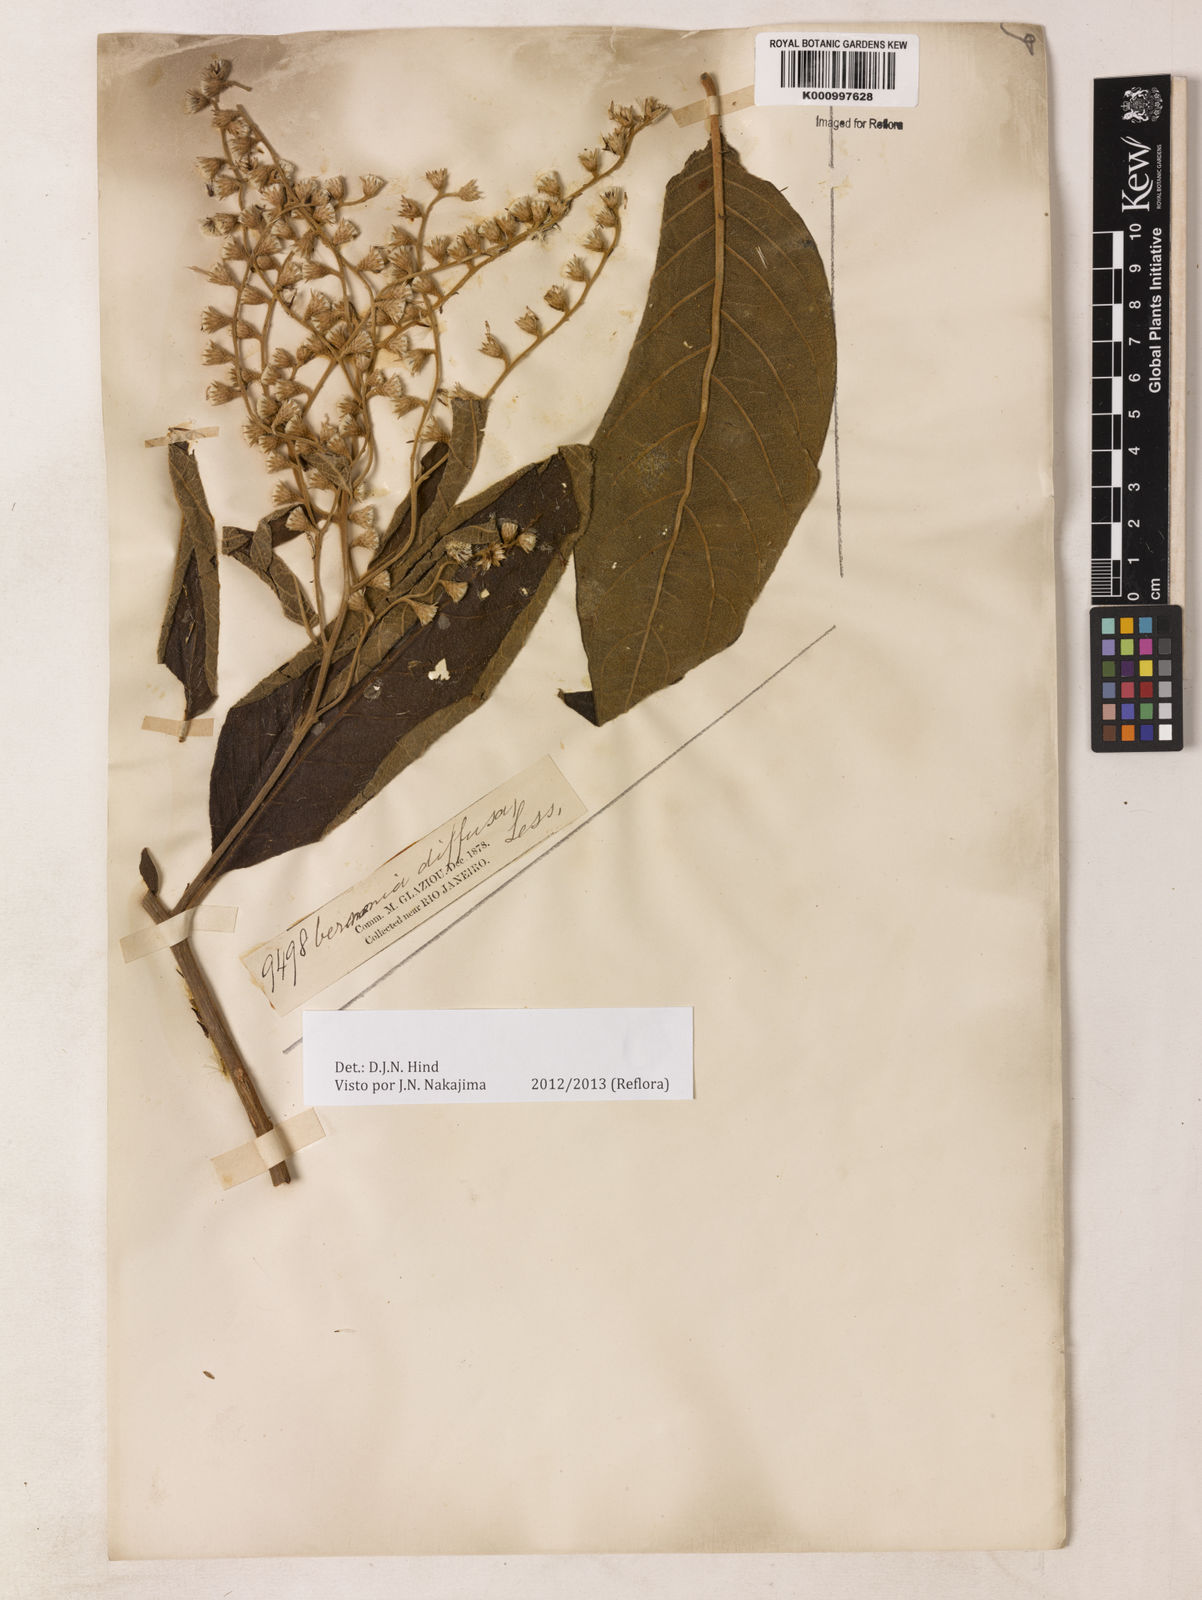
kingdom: Plantae
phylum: Tracheophyta
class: Magnoliopsida
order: Asterales
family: Asteraceae
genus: Vernonanthura
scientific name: Vernonanthura divaricata
